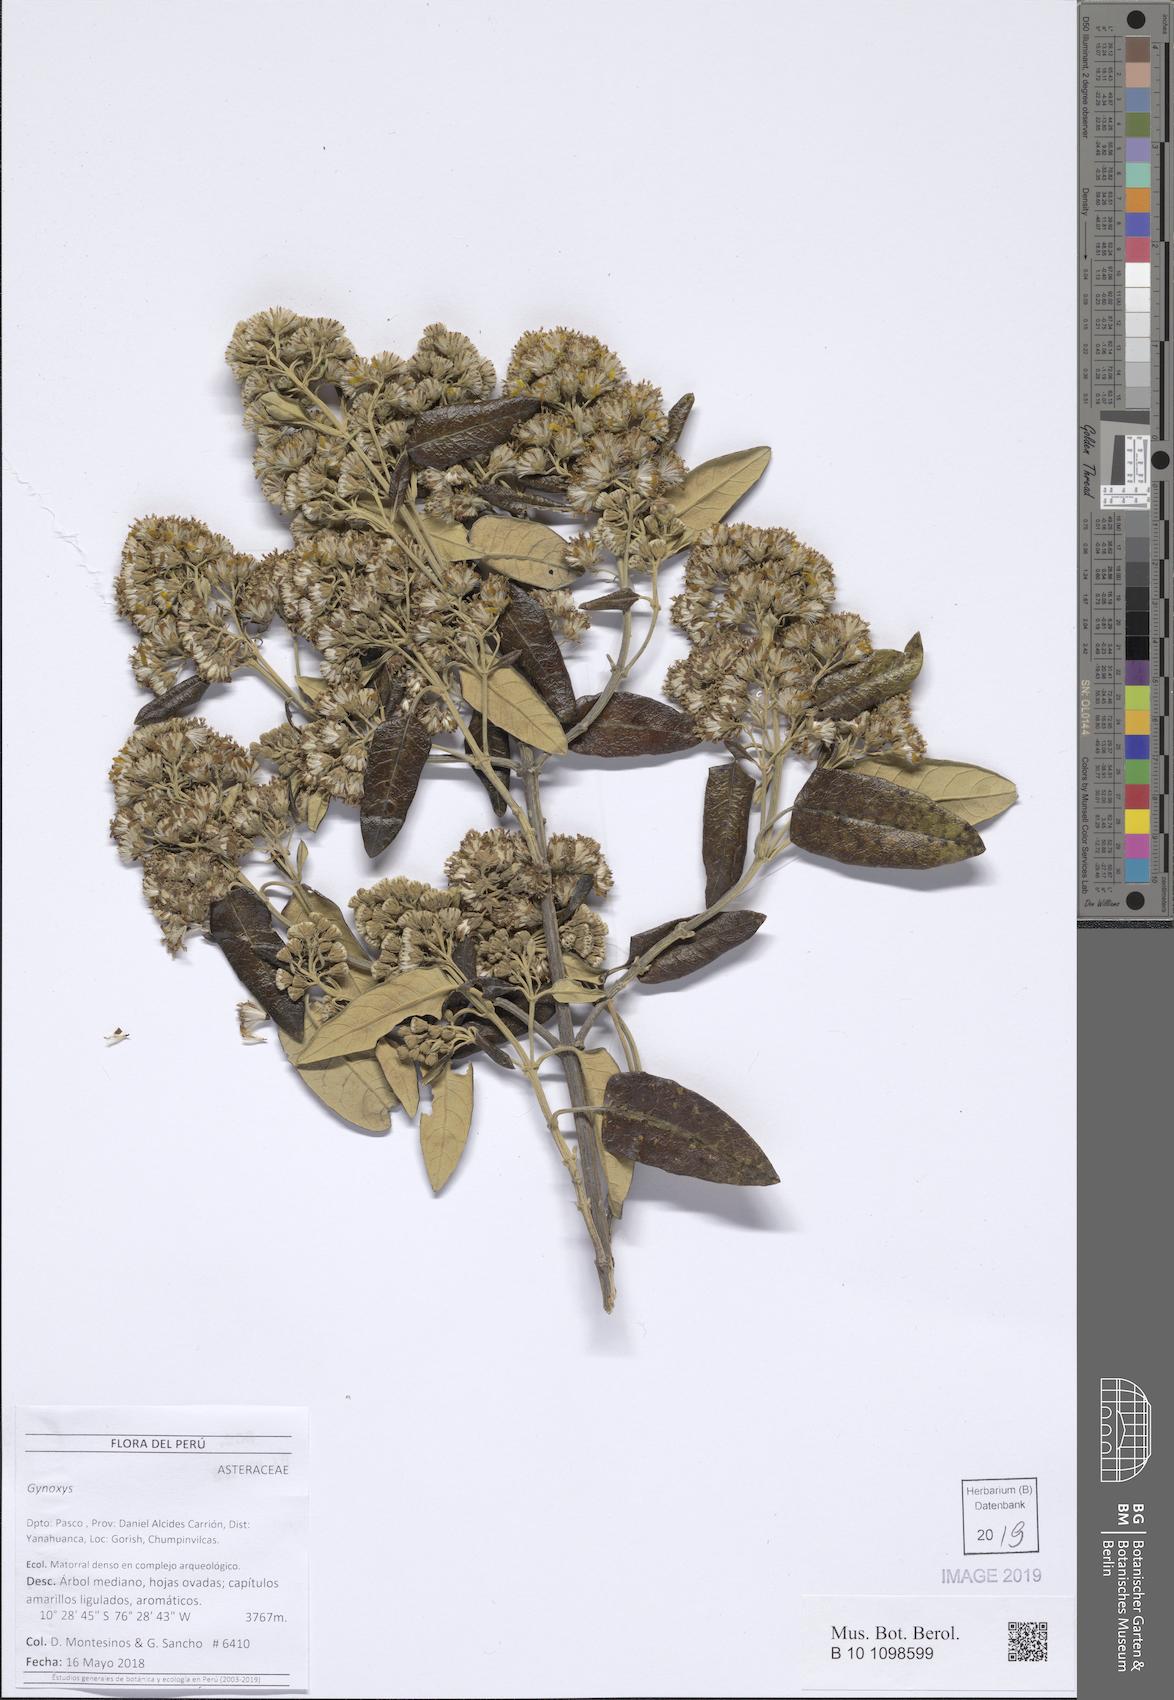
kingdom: Plantae
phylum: Tracheophyta
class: Magnoliopsida
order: Asterales
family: Asteraceae
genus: Gynoxys
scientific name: Gynoxys caracensis
